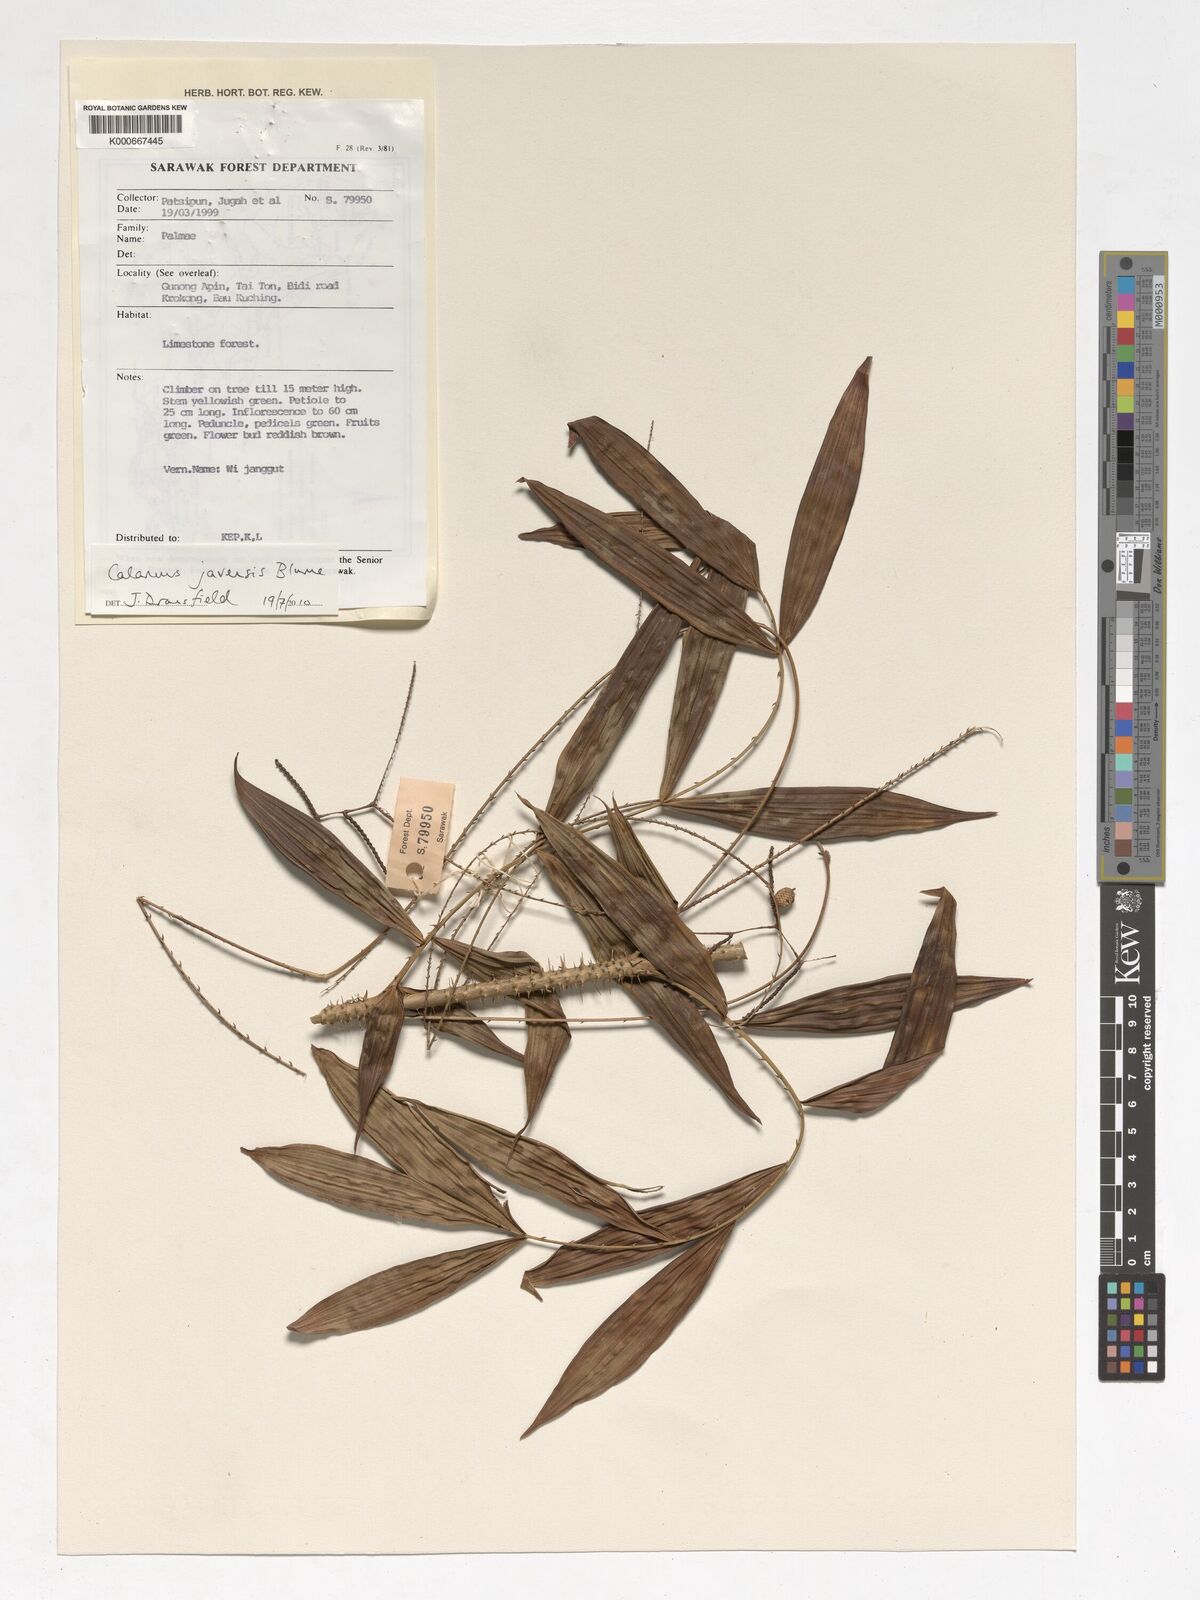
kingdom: Plantae
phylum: Tracheophyta
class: Liliopsida
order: Arecales
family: Arecaceae
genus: Calamus
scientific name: Calamus javensis
